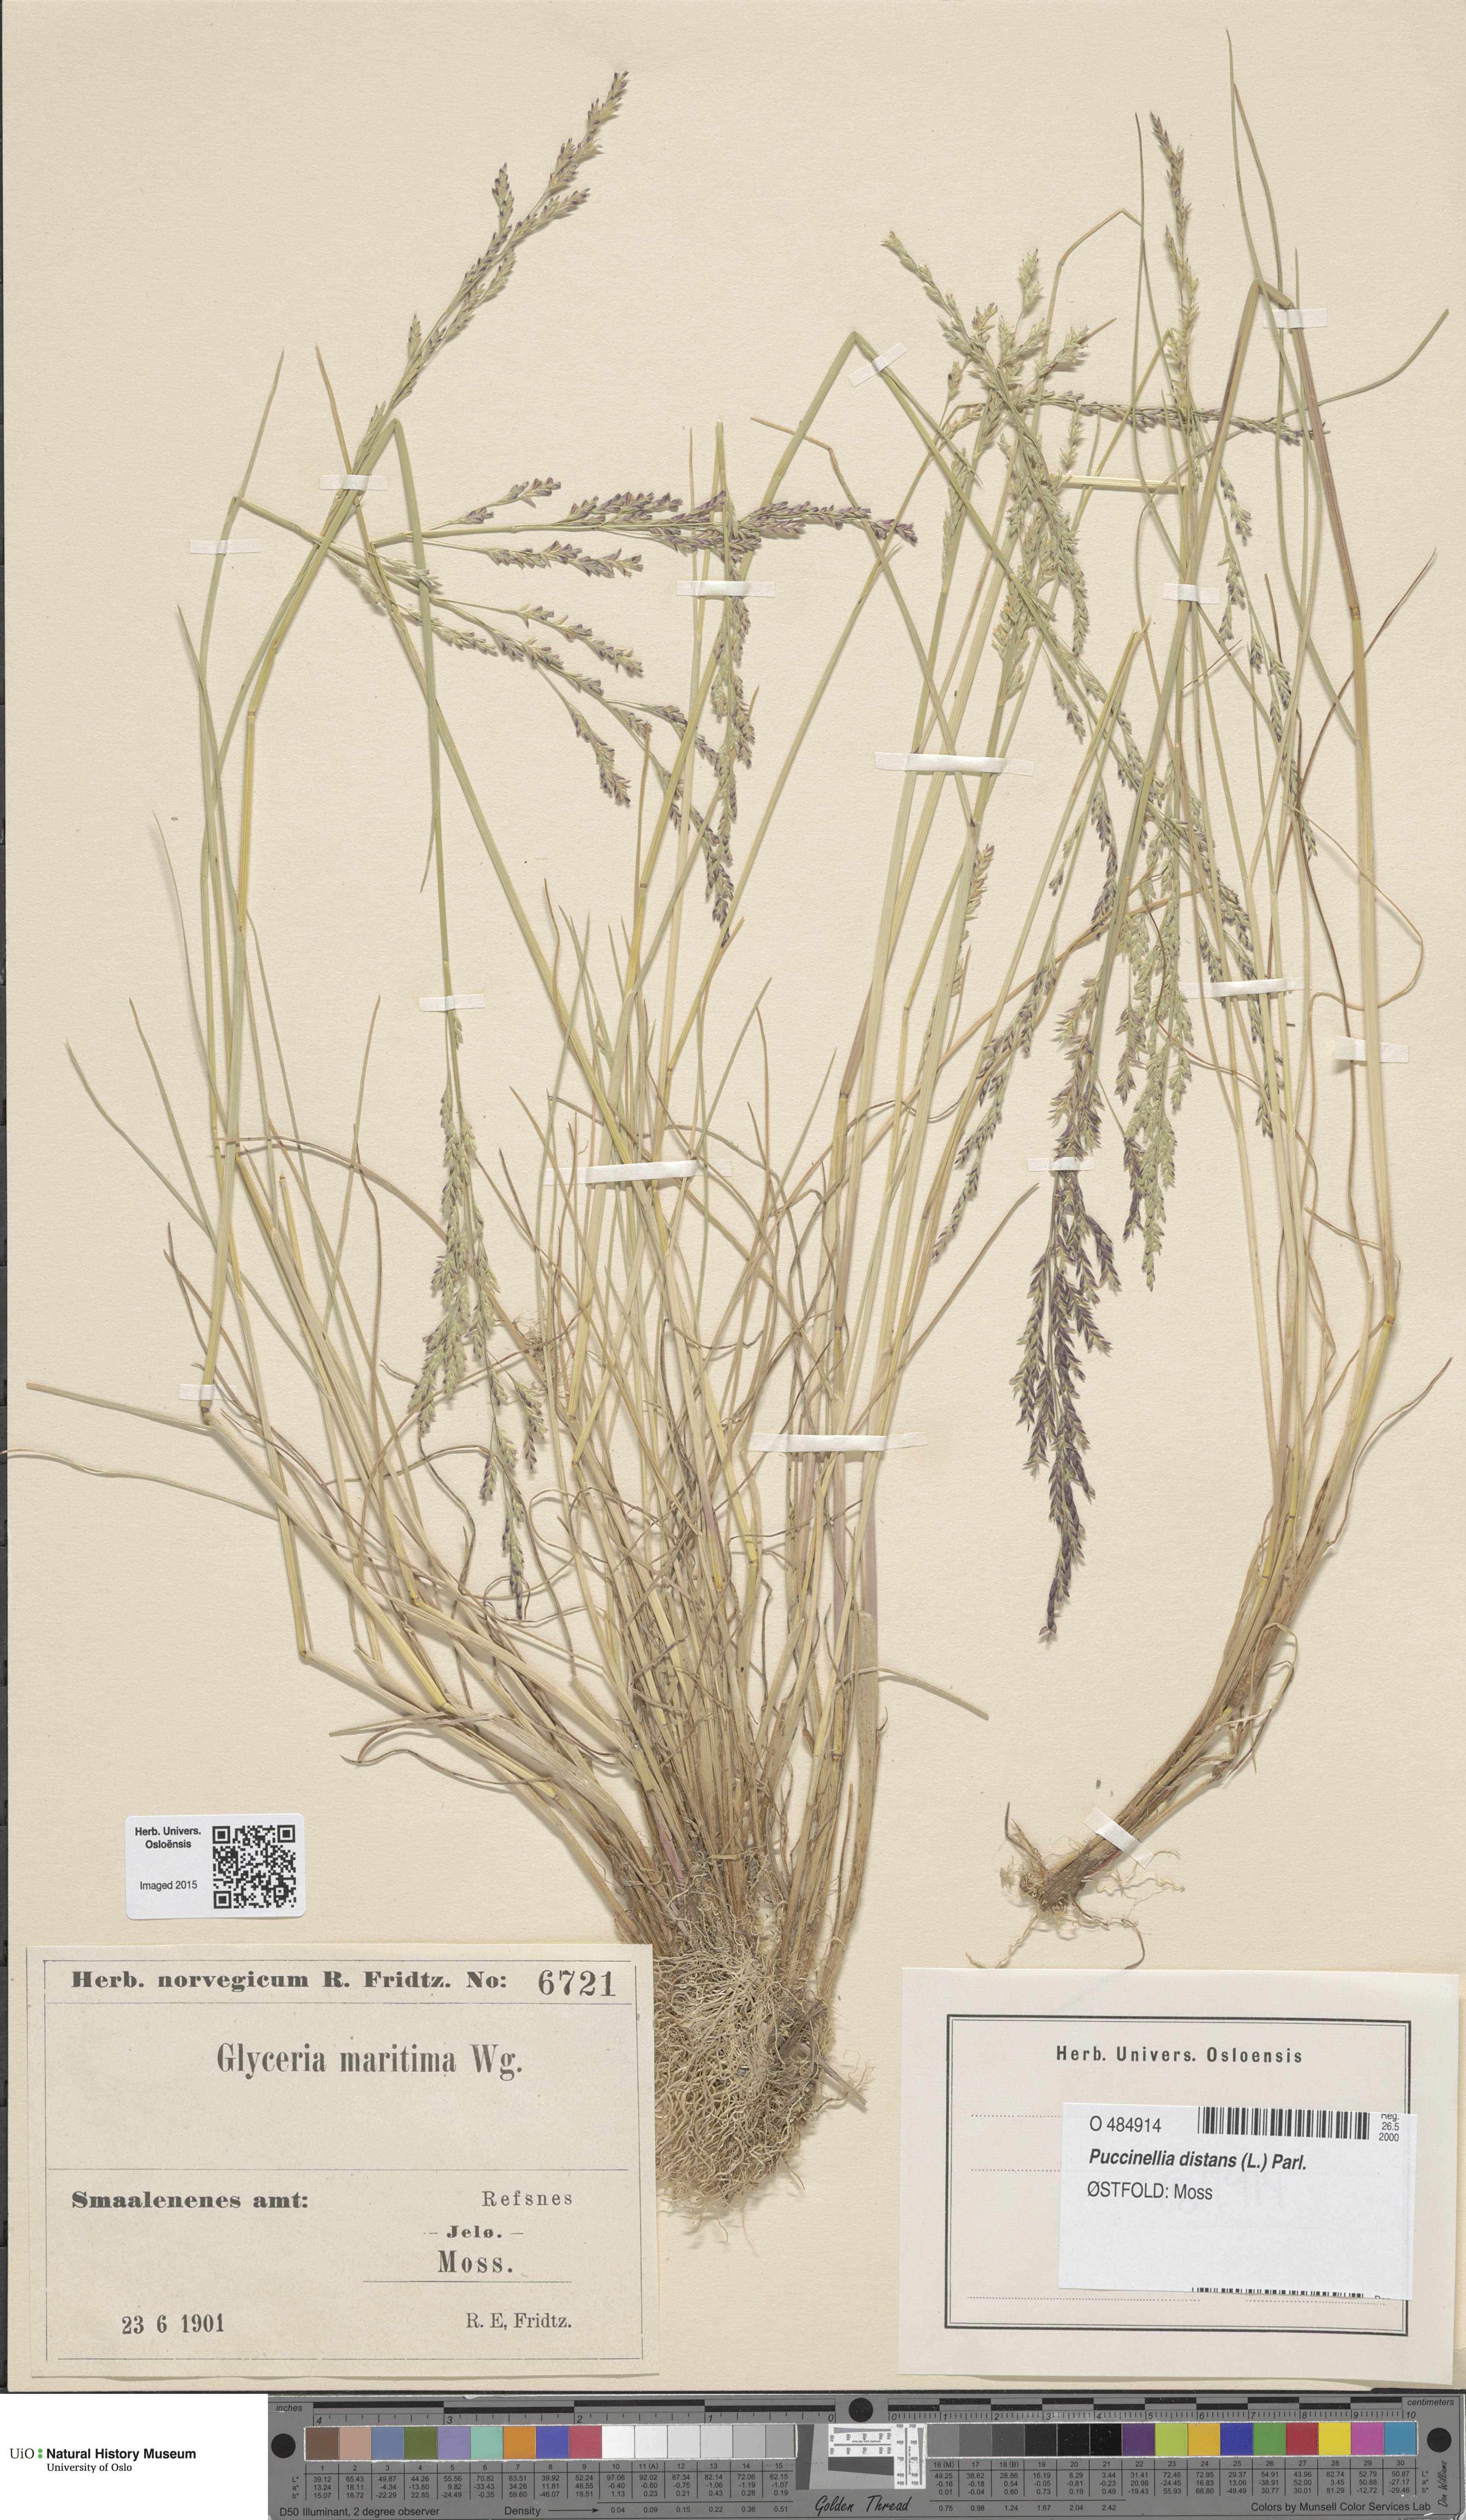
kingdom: Plantae
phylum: Tracheophyta
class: Liliopsida
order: Poales
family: Poaceae
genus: Puccinellia
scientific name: Puccinellia maritima
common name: Common saltmarsh grass
